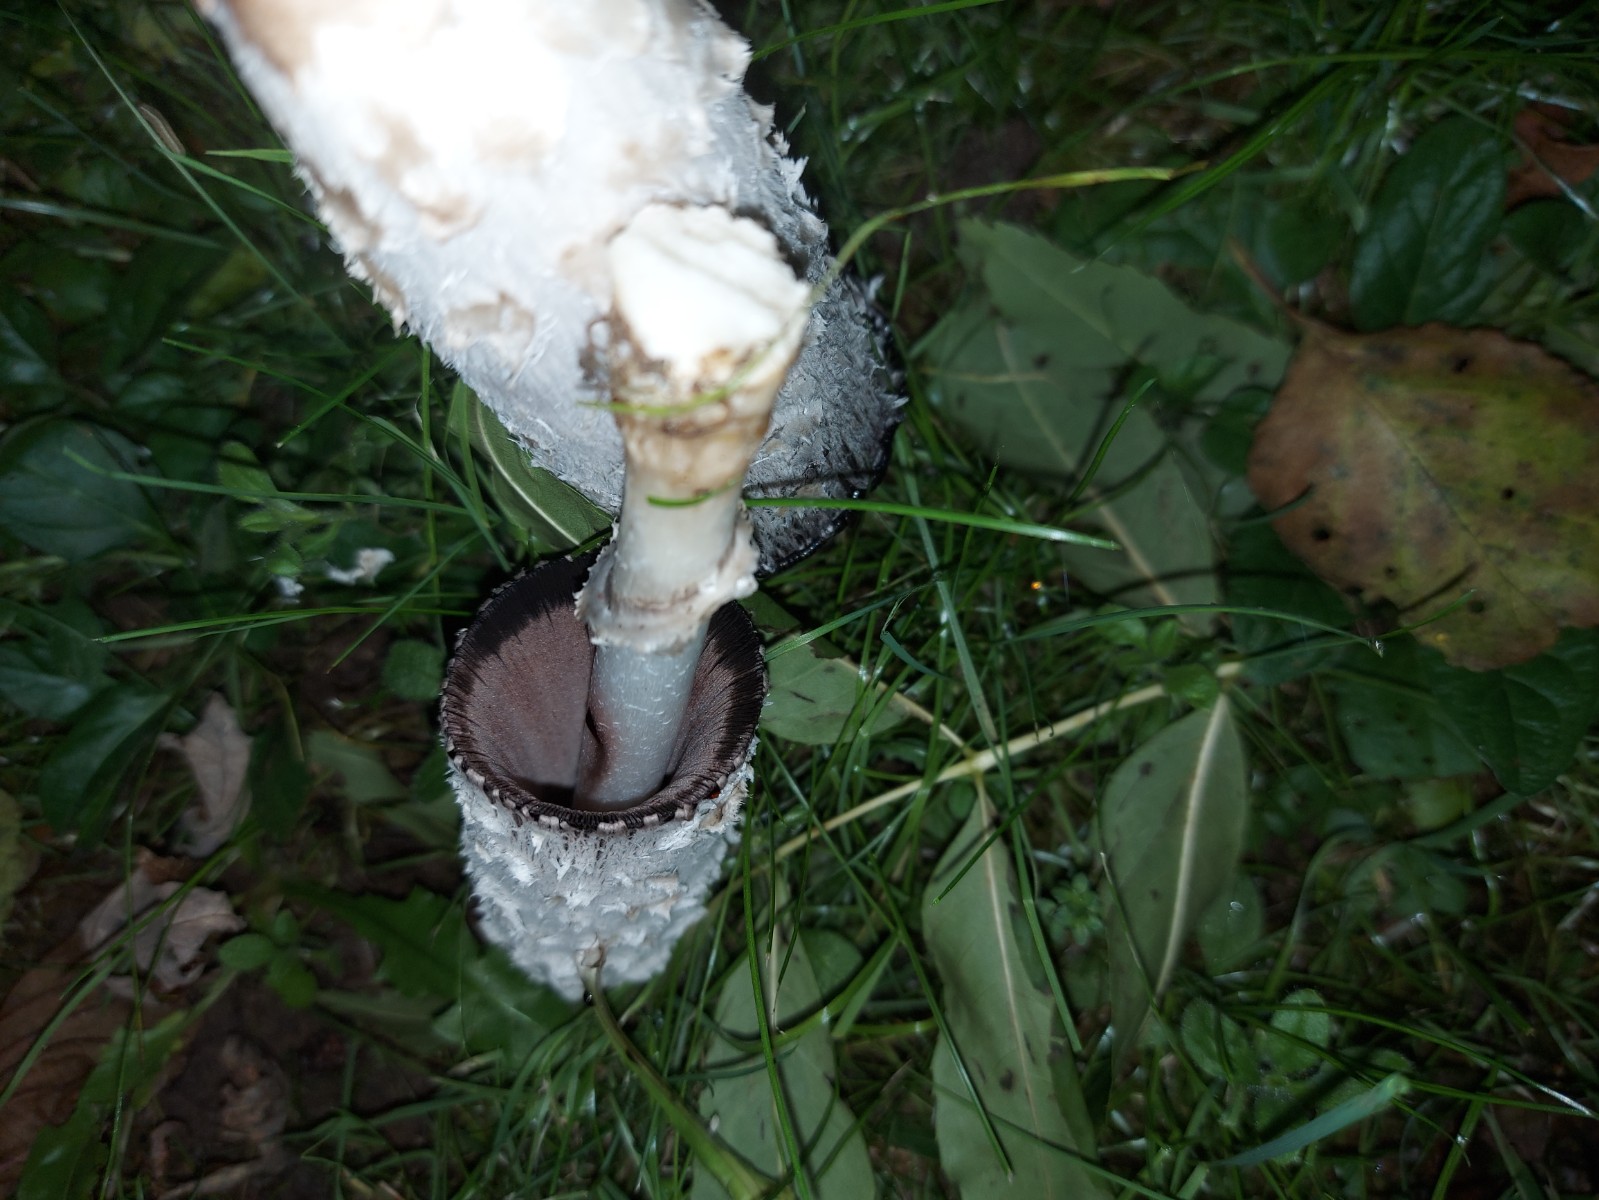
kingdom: Fungi
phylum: Basidiomycota
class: Agaricomycetes
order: Agaricales
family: Agaricaceae
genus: Coprinus
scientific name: Coprinus comatus
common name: stor parykhat
